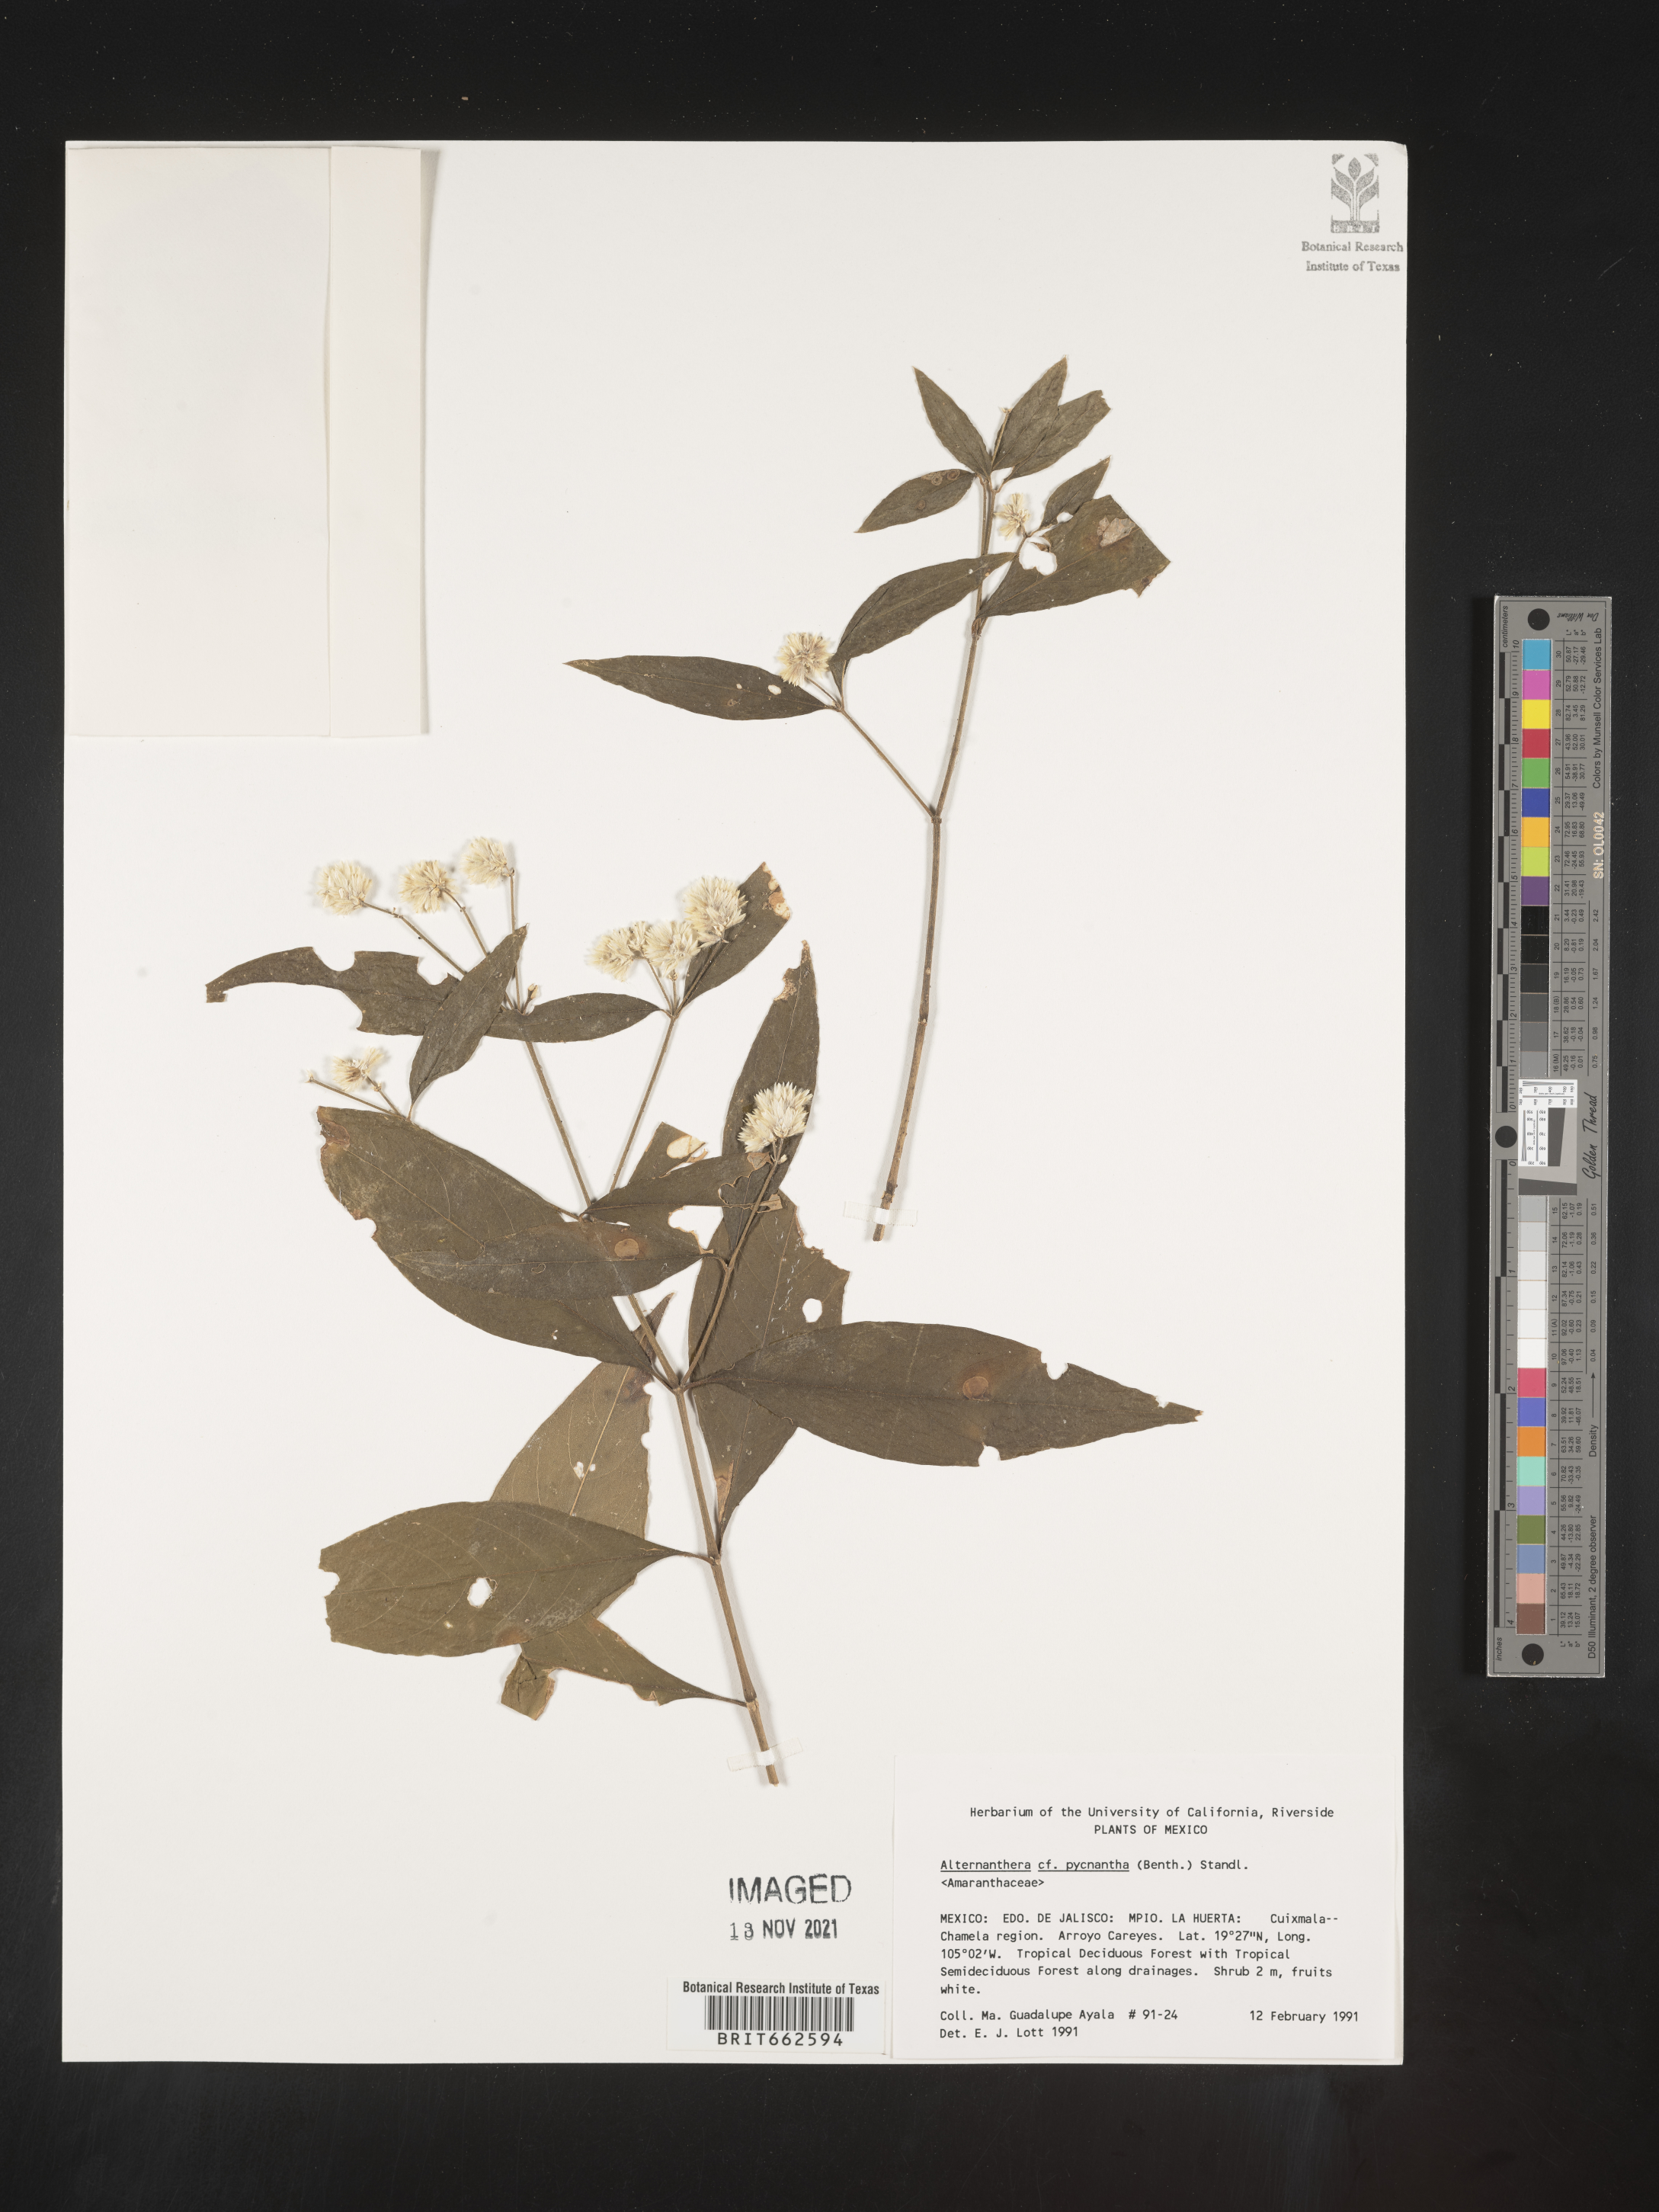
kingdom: Plantae
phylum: Tracheophyta
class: Magnoliopsida
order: Caryophyllales
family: Amaranthaceae
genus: Alternanthera
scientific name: Alternanthera
